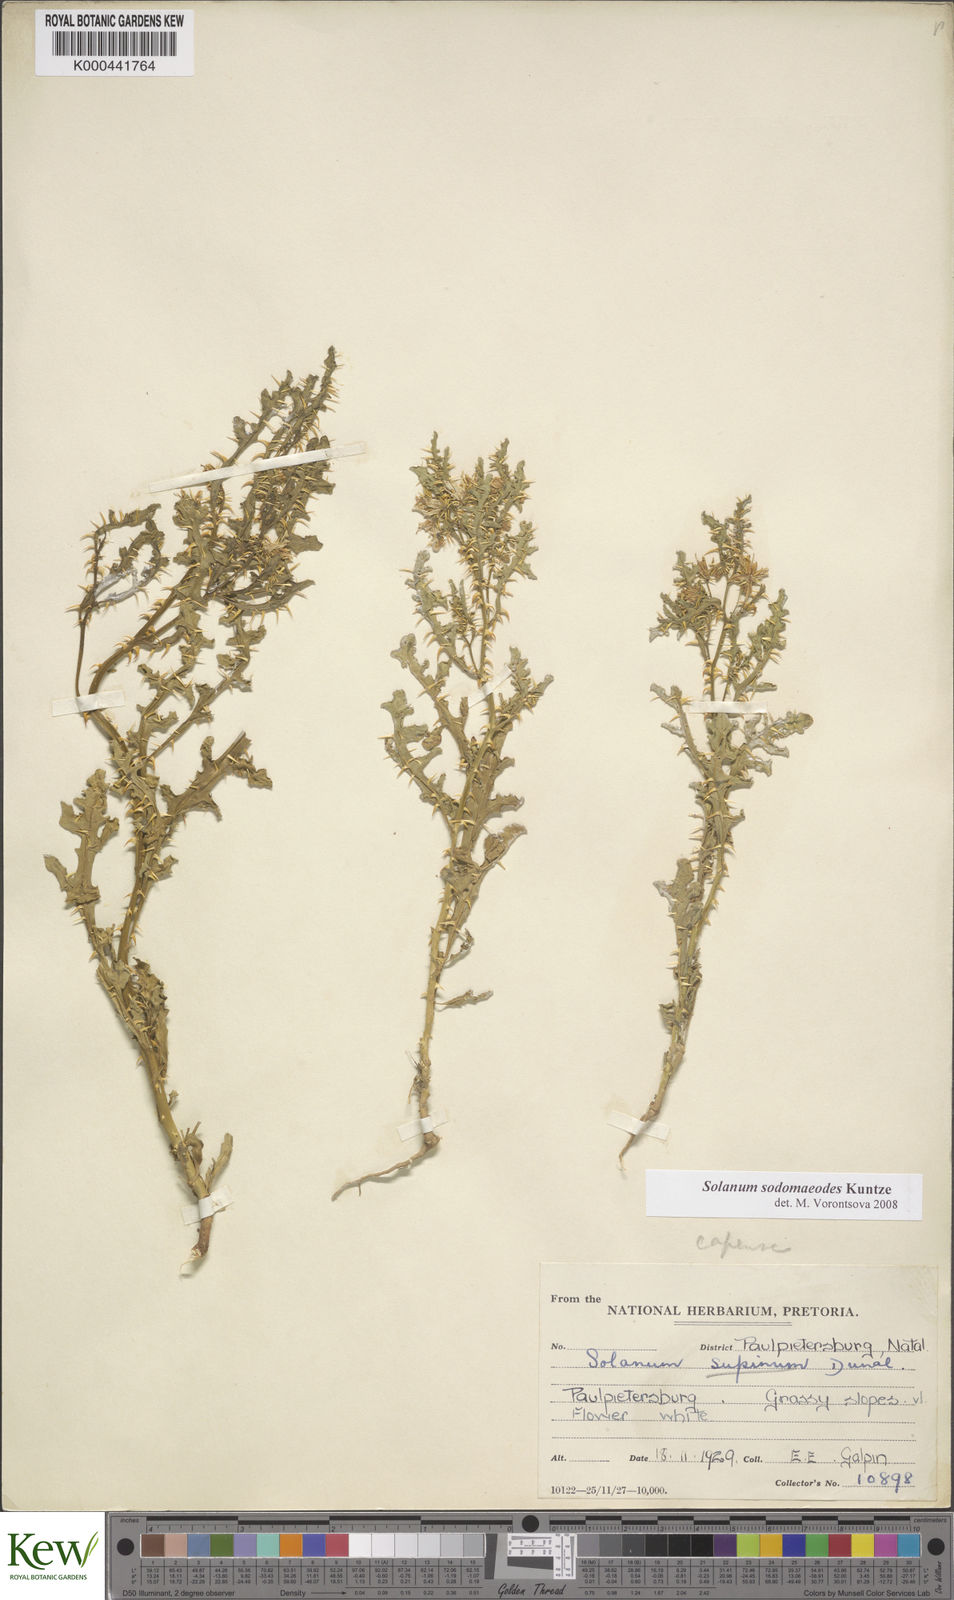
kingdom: Plantae
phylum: Tracheophyta
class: Magnoliopsida
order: Solanales
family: Solanaceae
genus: Solanum
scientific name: Solanum
